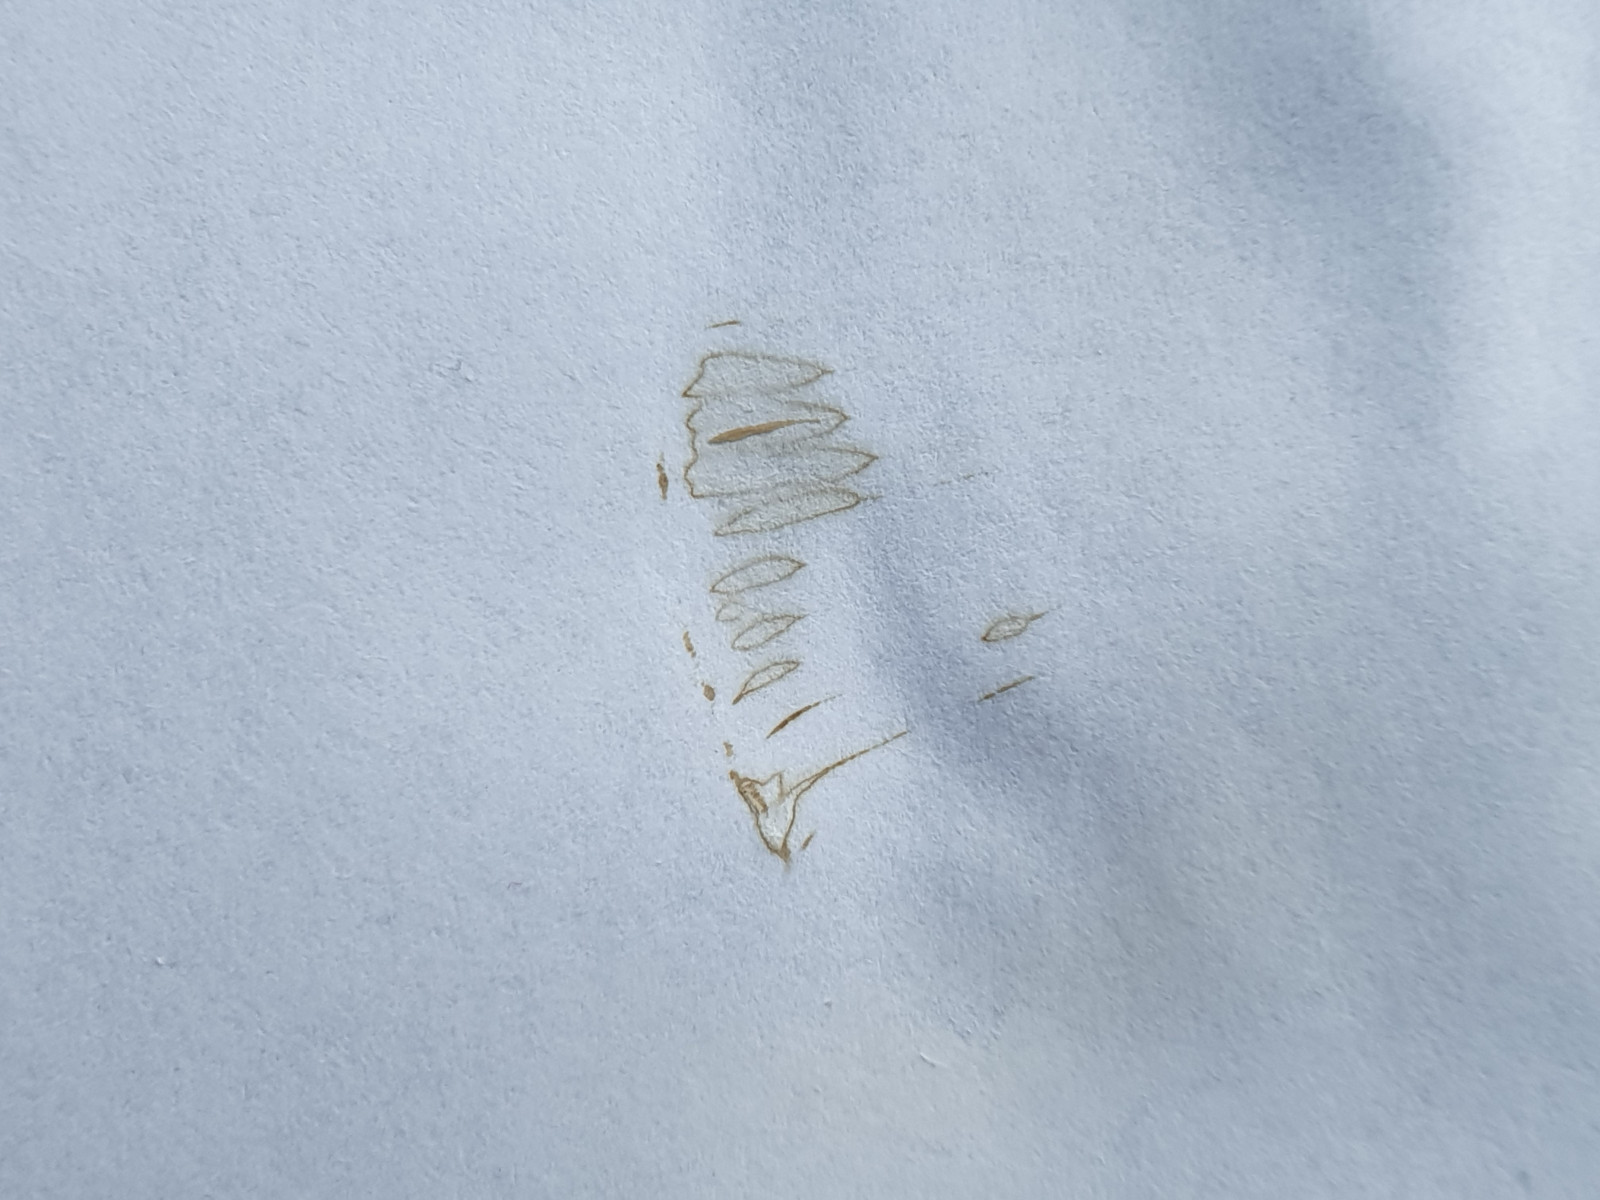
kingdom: Fungi
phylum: Basidiomycota
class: Agaricomycetes
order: Agaricales
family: Tricholomataceae
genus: Clitocybe
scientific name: Clitocybe fragrans
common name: vellugtende tragthat
